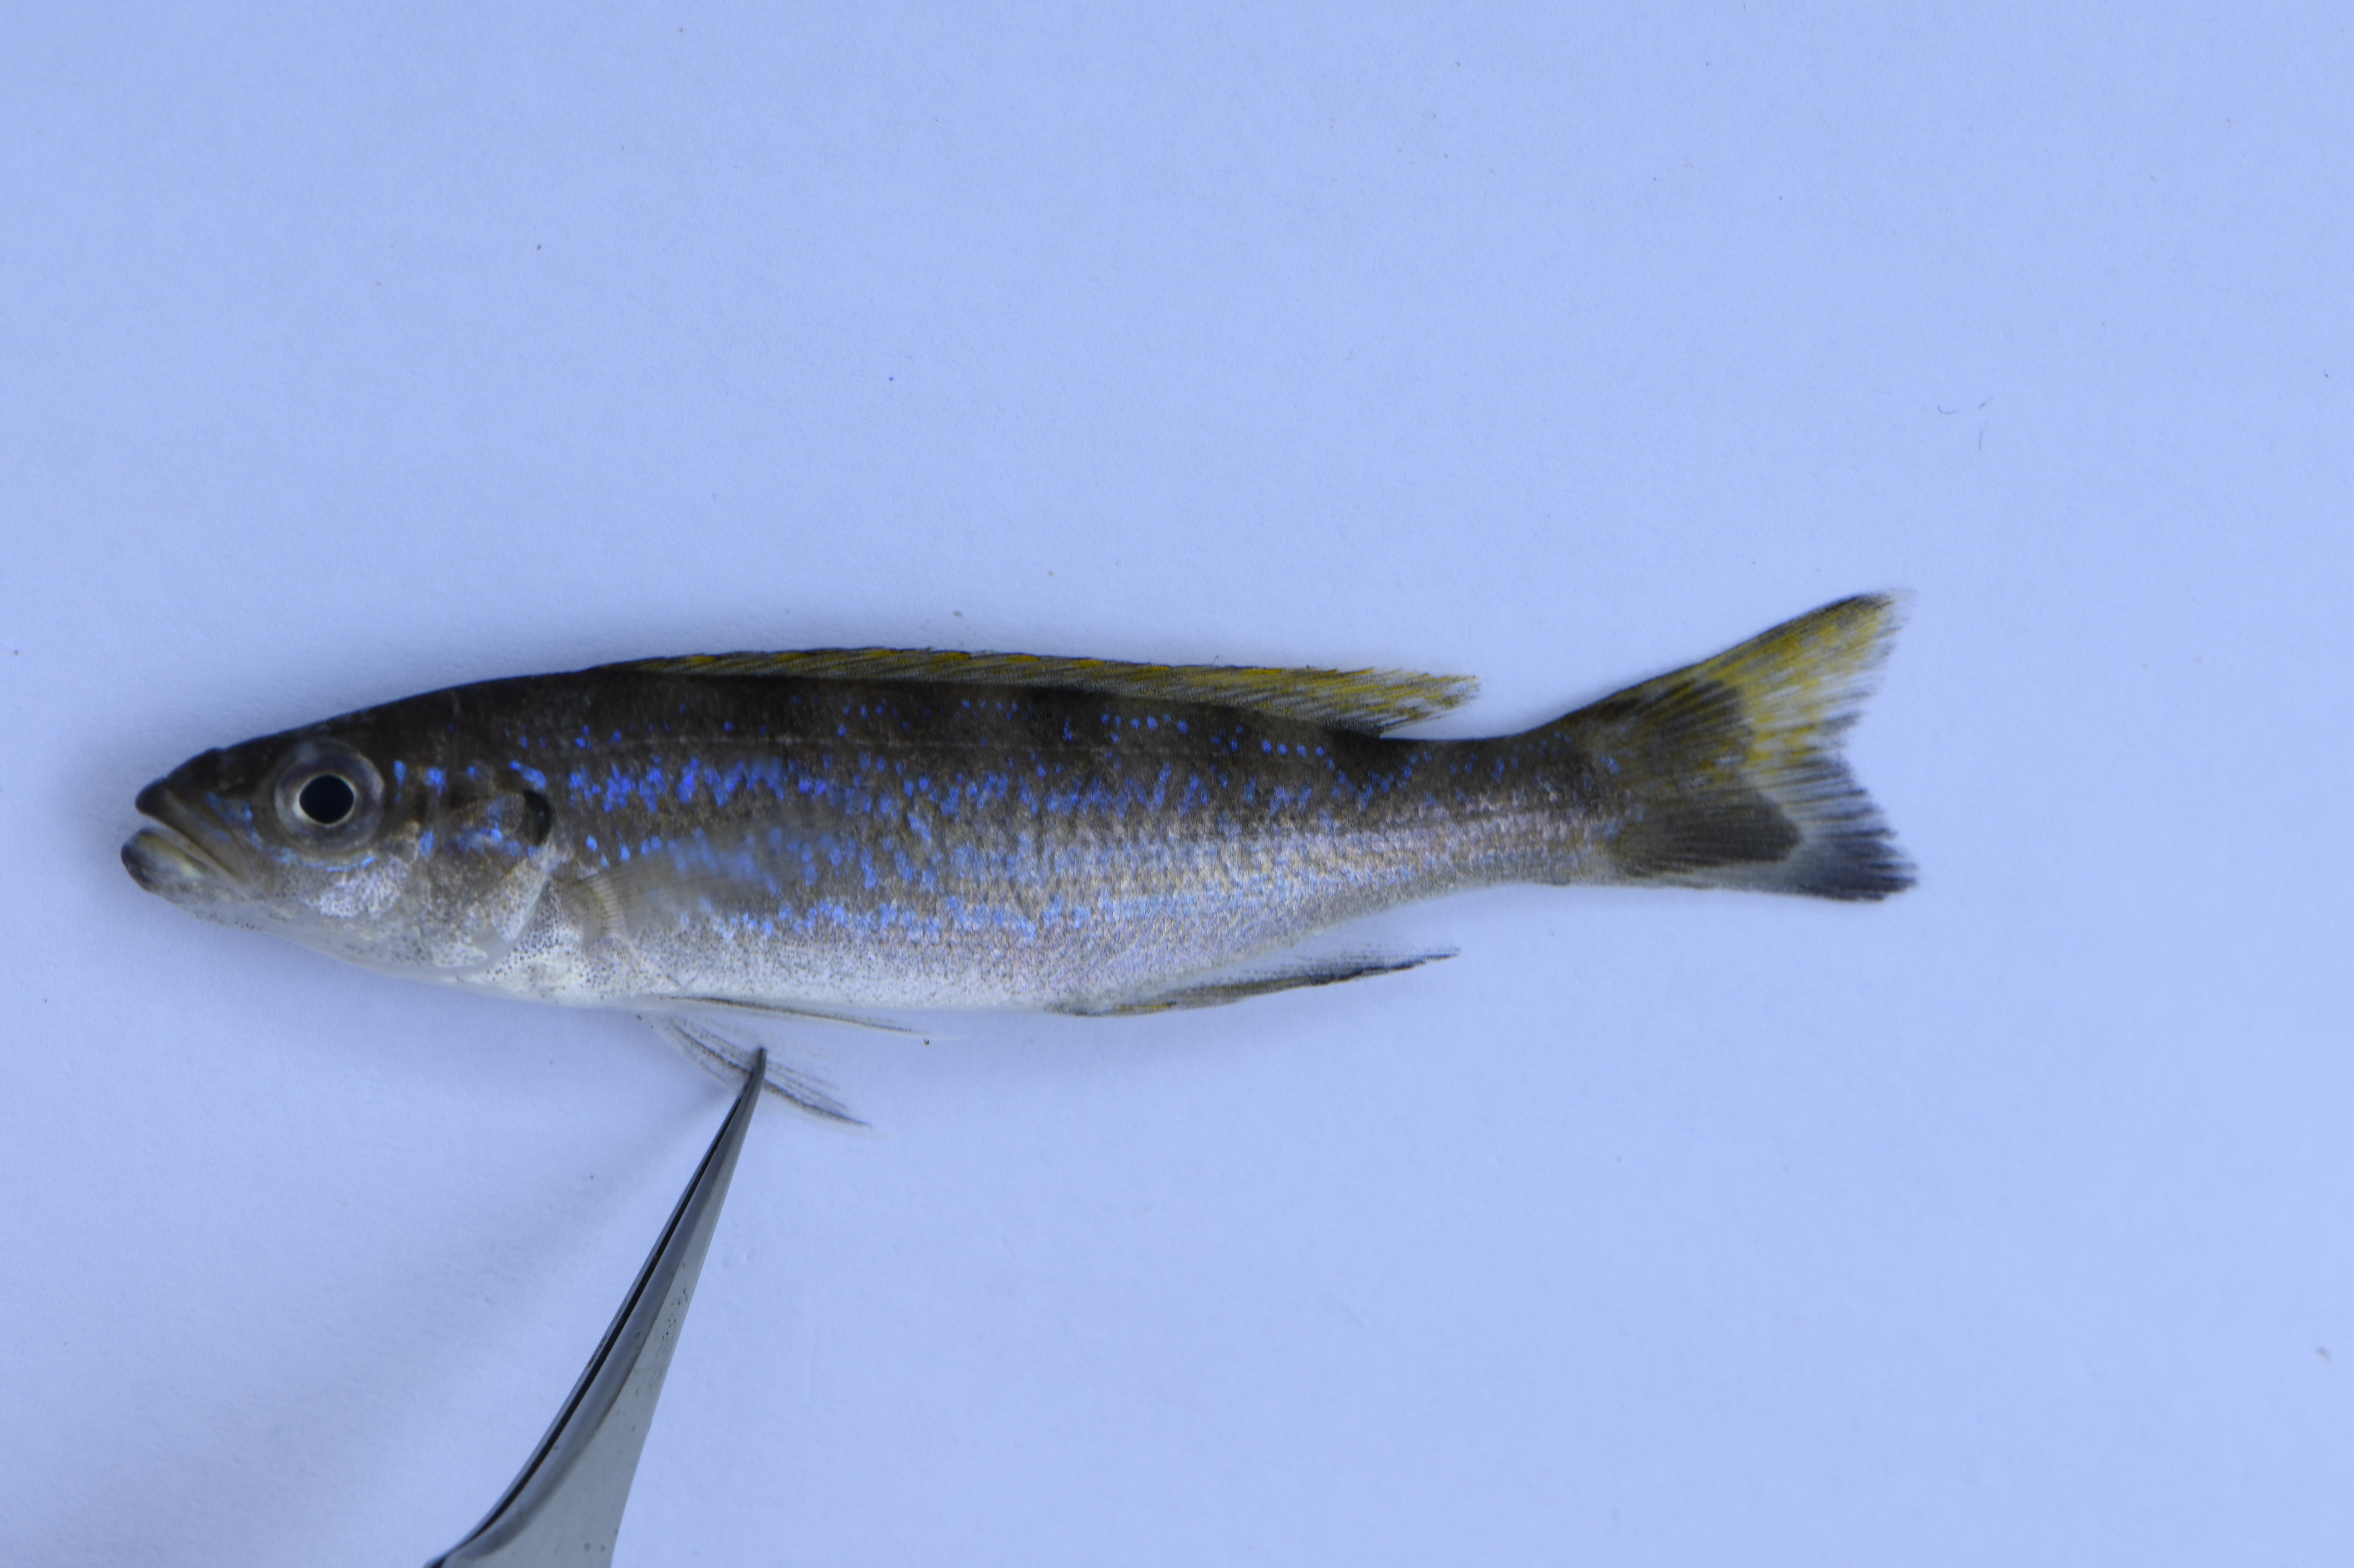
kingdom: Animalia
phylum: Chordata
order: Perciformes
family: Cichlidae
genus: Perissodus
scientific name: Perissodus microlepis
